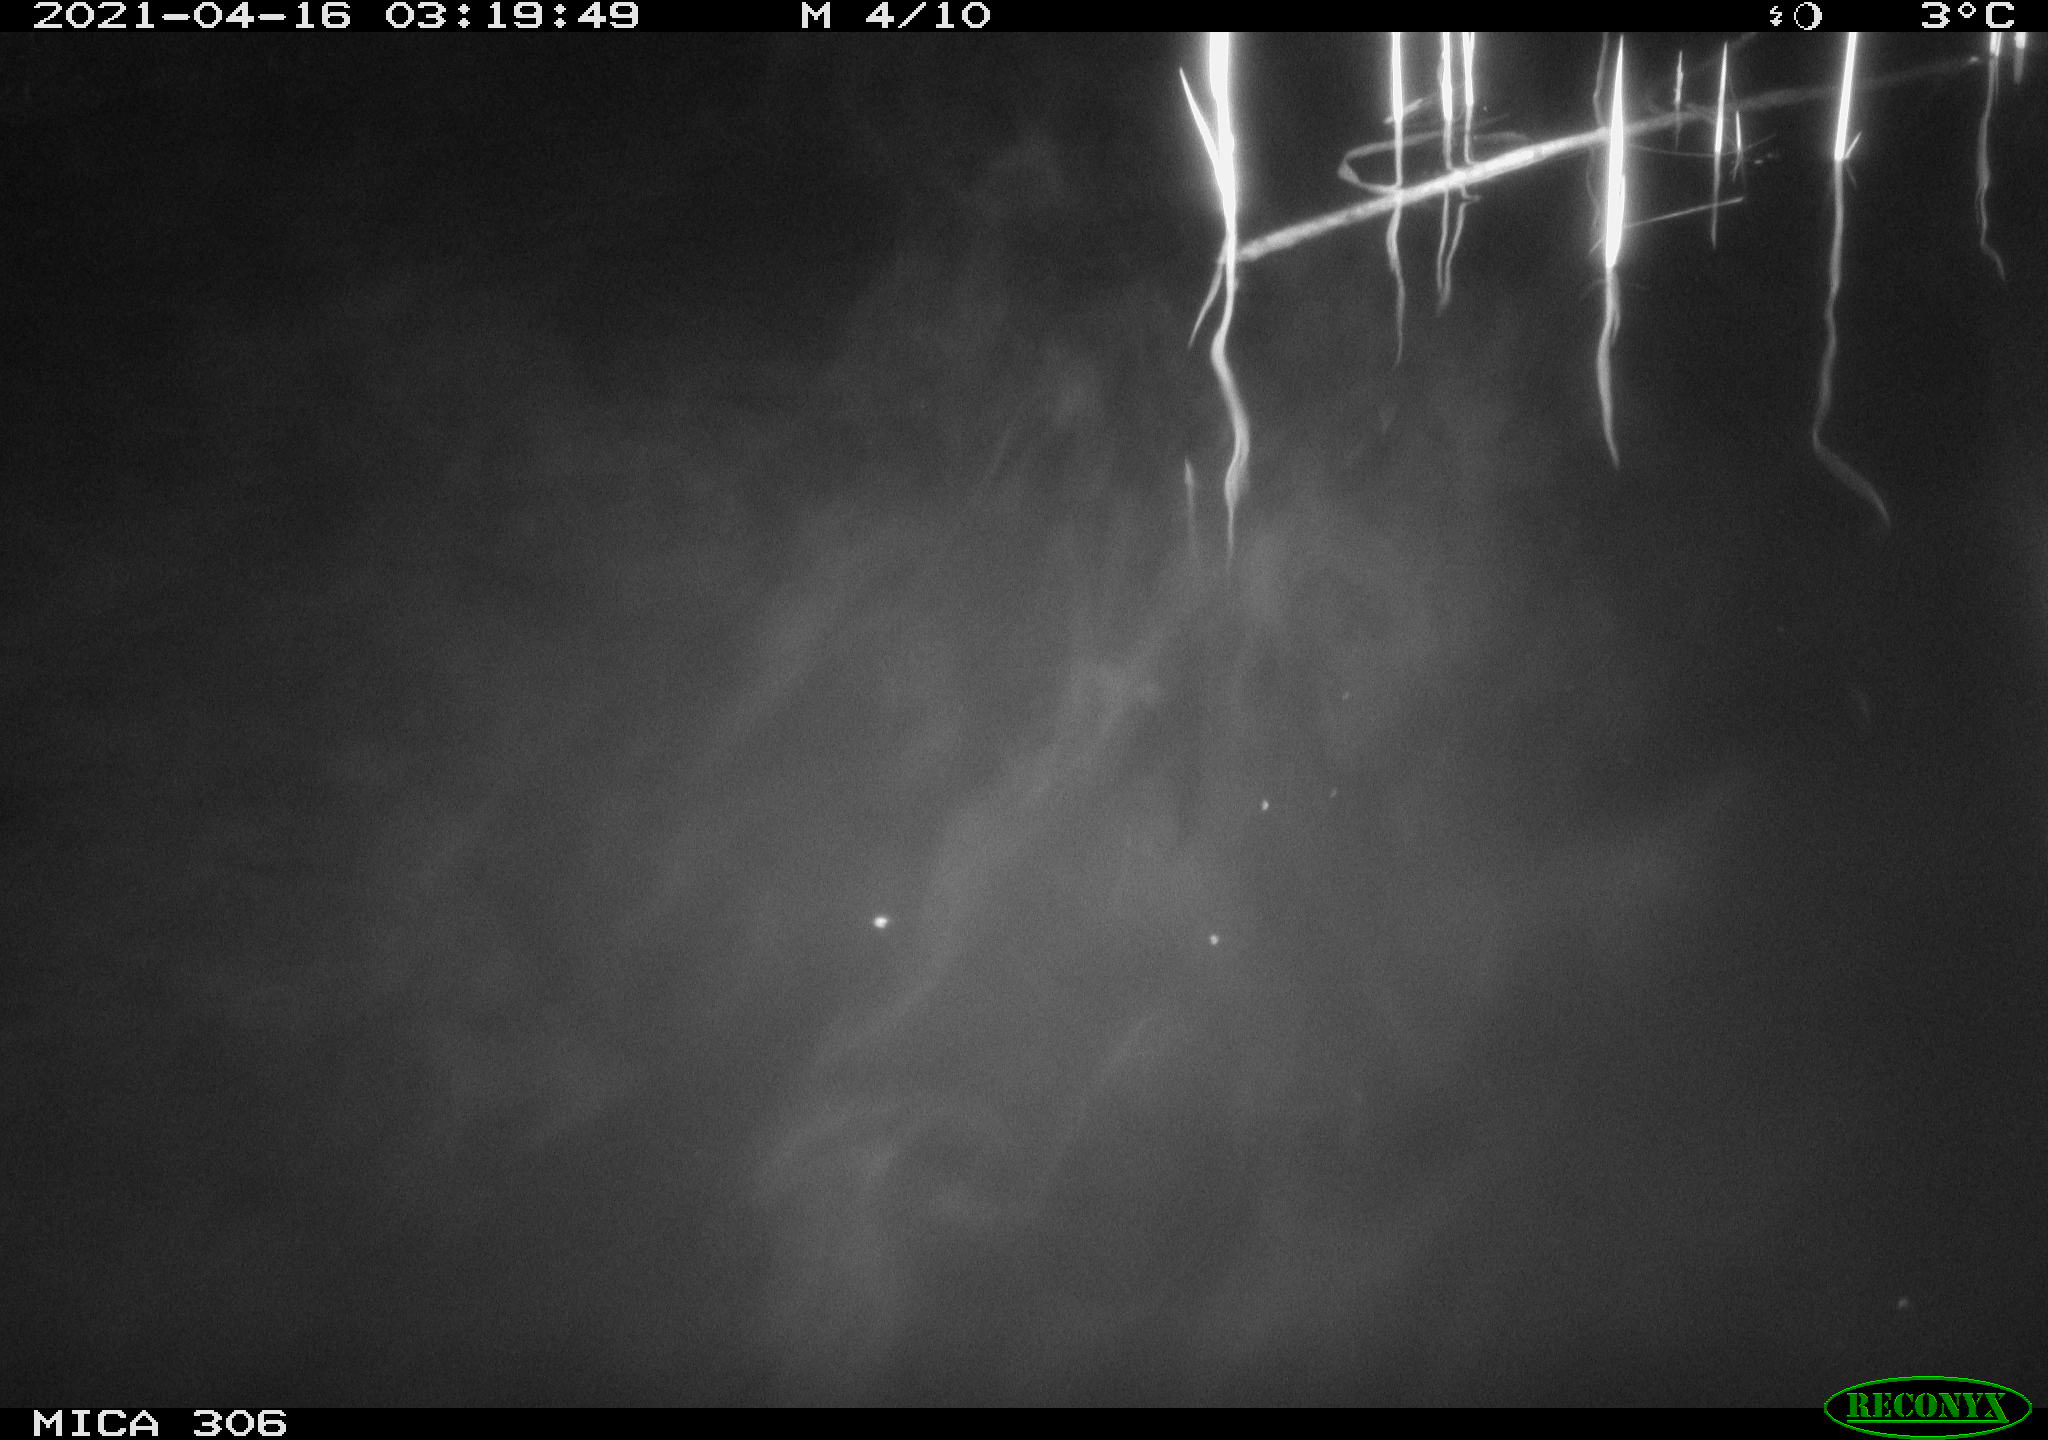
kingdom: Animalia
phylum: Chordata
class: Mammalia
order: Rodentia
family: Muridae
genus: Rattus
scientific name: Rattus norvegicus
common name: Brown rat
